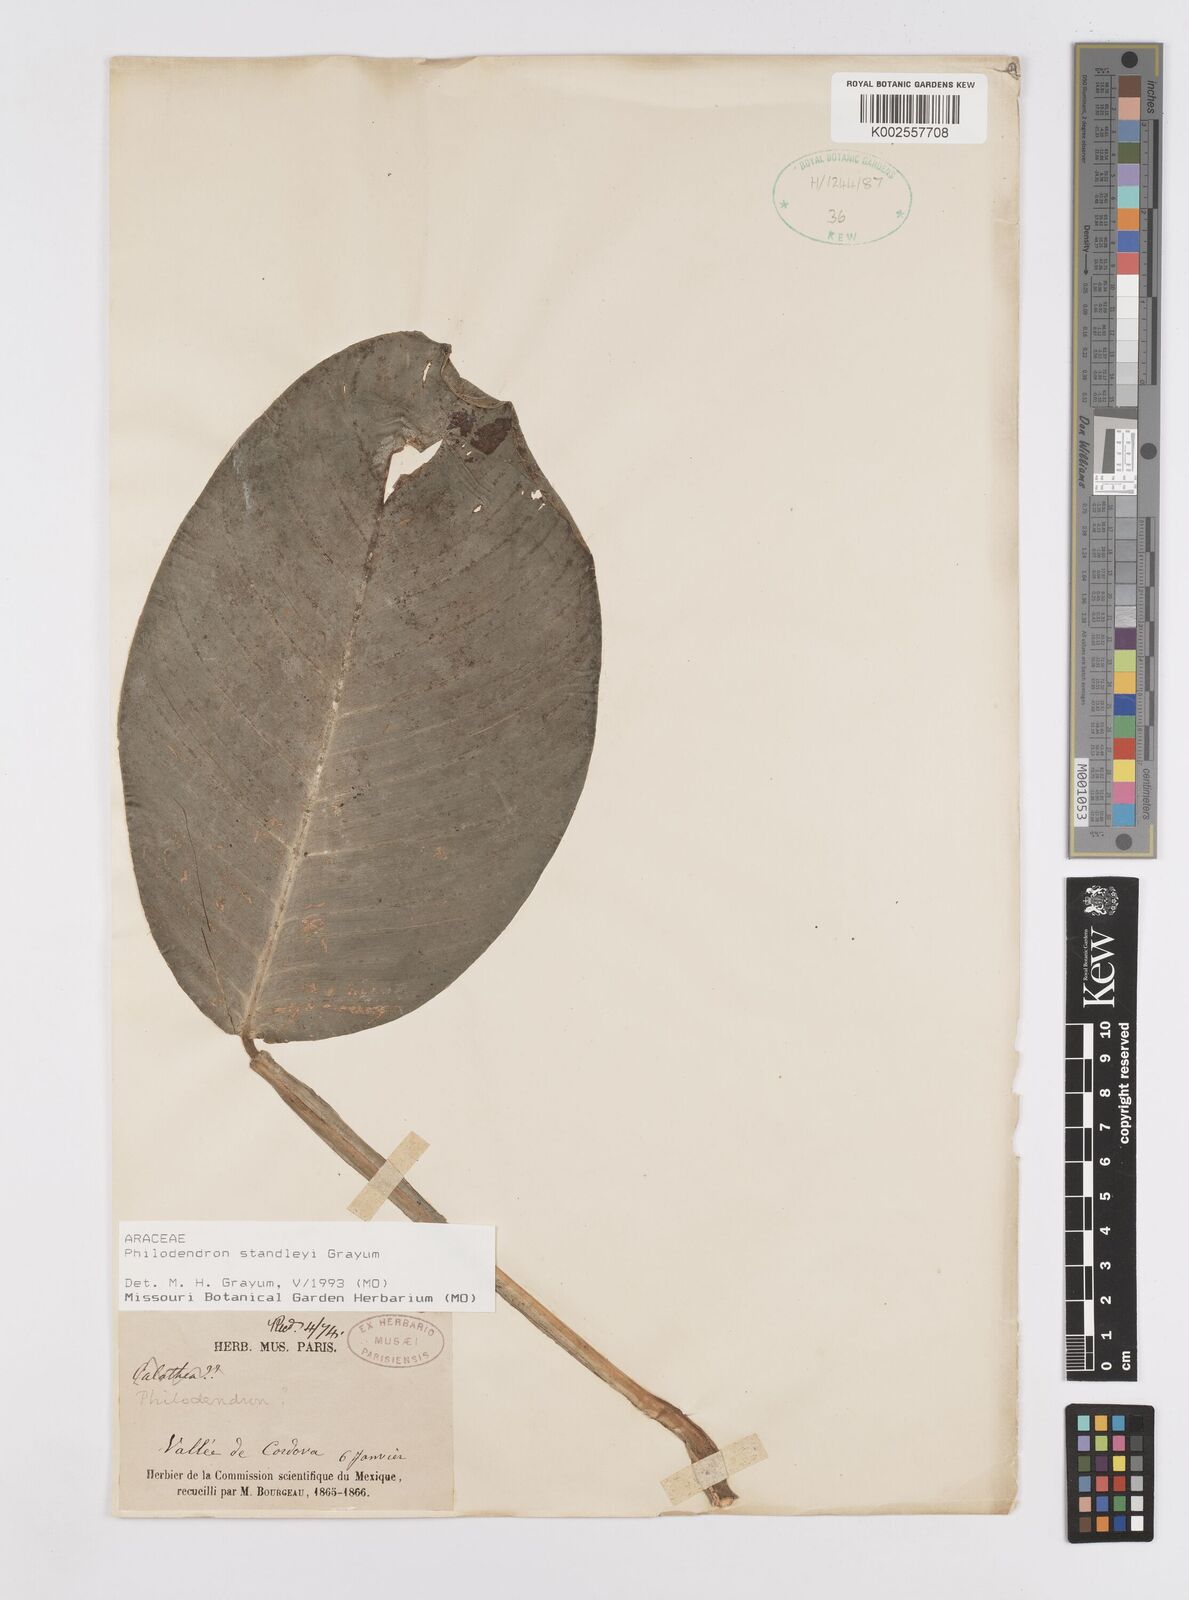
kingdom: Plantae
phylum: Tracheophyta
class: Liliopsida
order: Alismatales
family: Araceae
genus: Philodendron
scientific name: Philodendron standleyi
